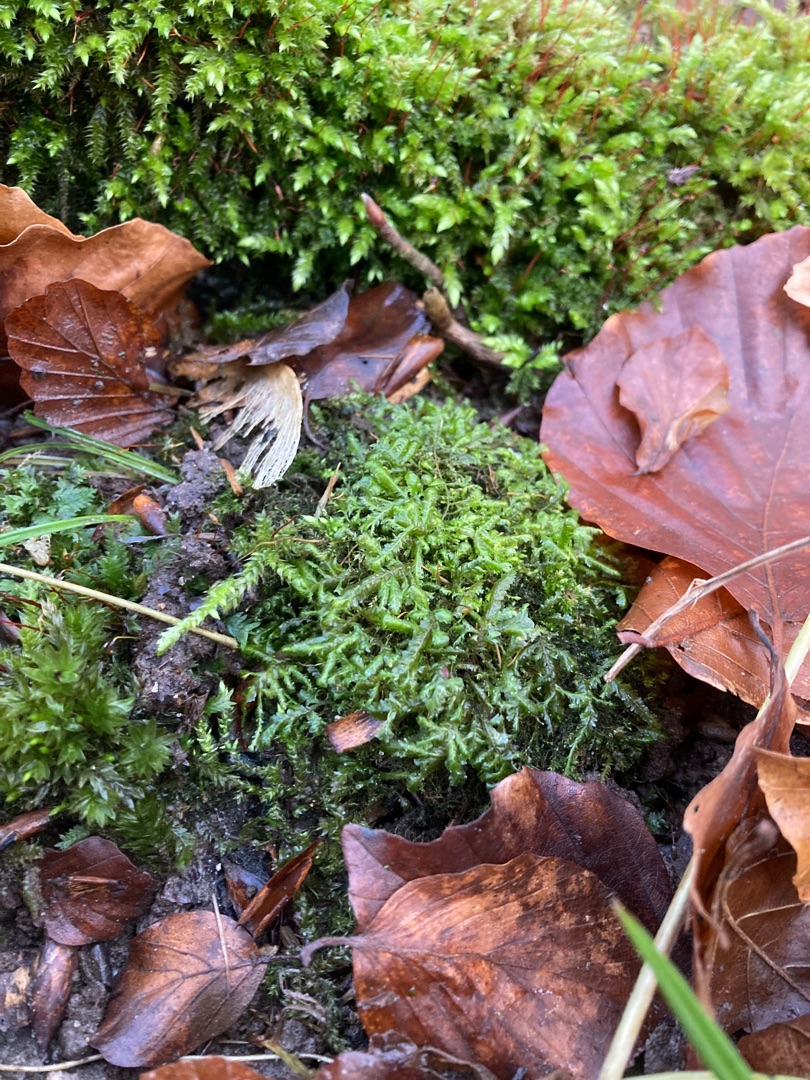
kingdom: Plantae
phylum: Bryophyta
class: Bryopsida
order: Hypnales
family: Neckeraceae
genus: Homalia
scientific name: Homalia trichomanoides
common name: Skov-tungemos
